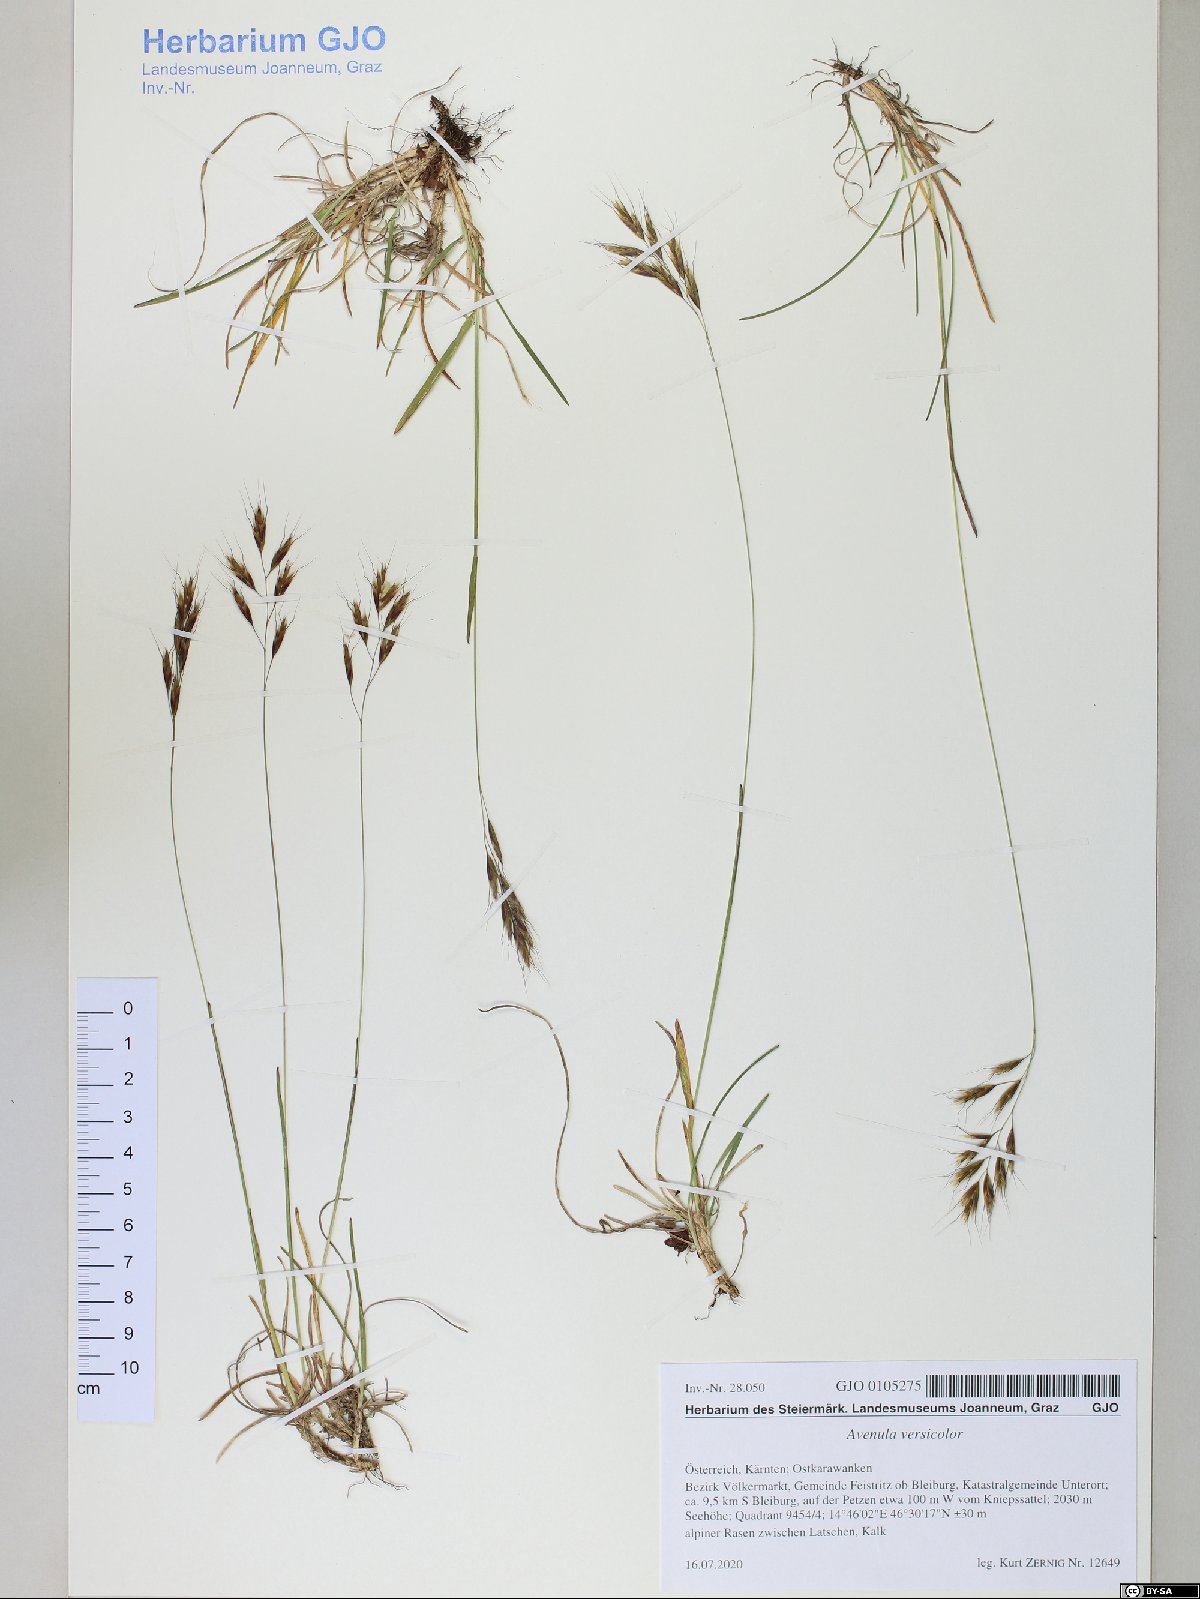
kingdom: Plantae
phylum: Tracheophyta
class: Liliopsida
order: Poales
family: Poaceae
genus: Helictochloa
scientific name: Helictochloa versicolor
